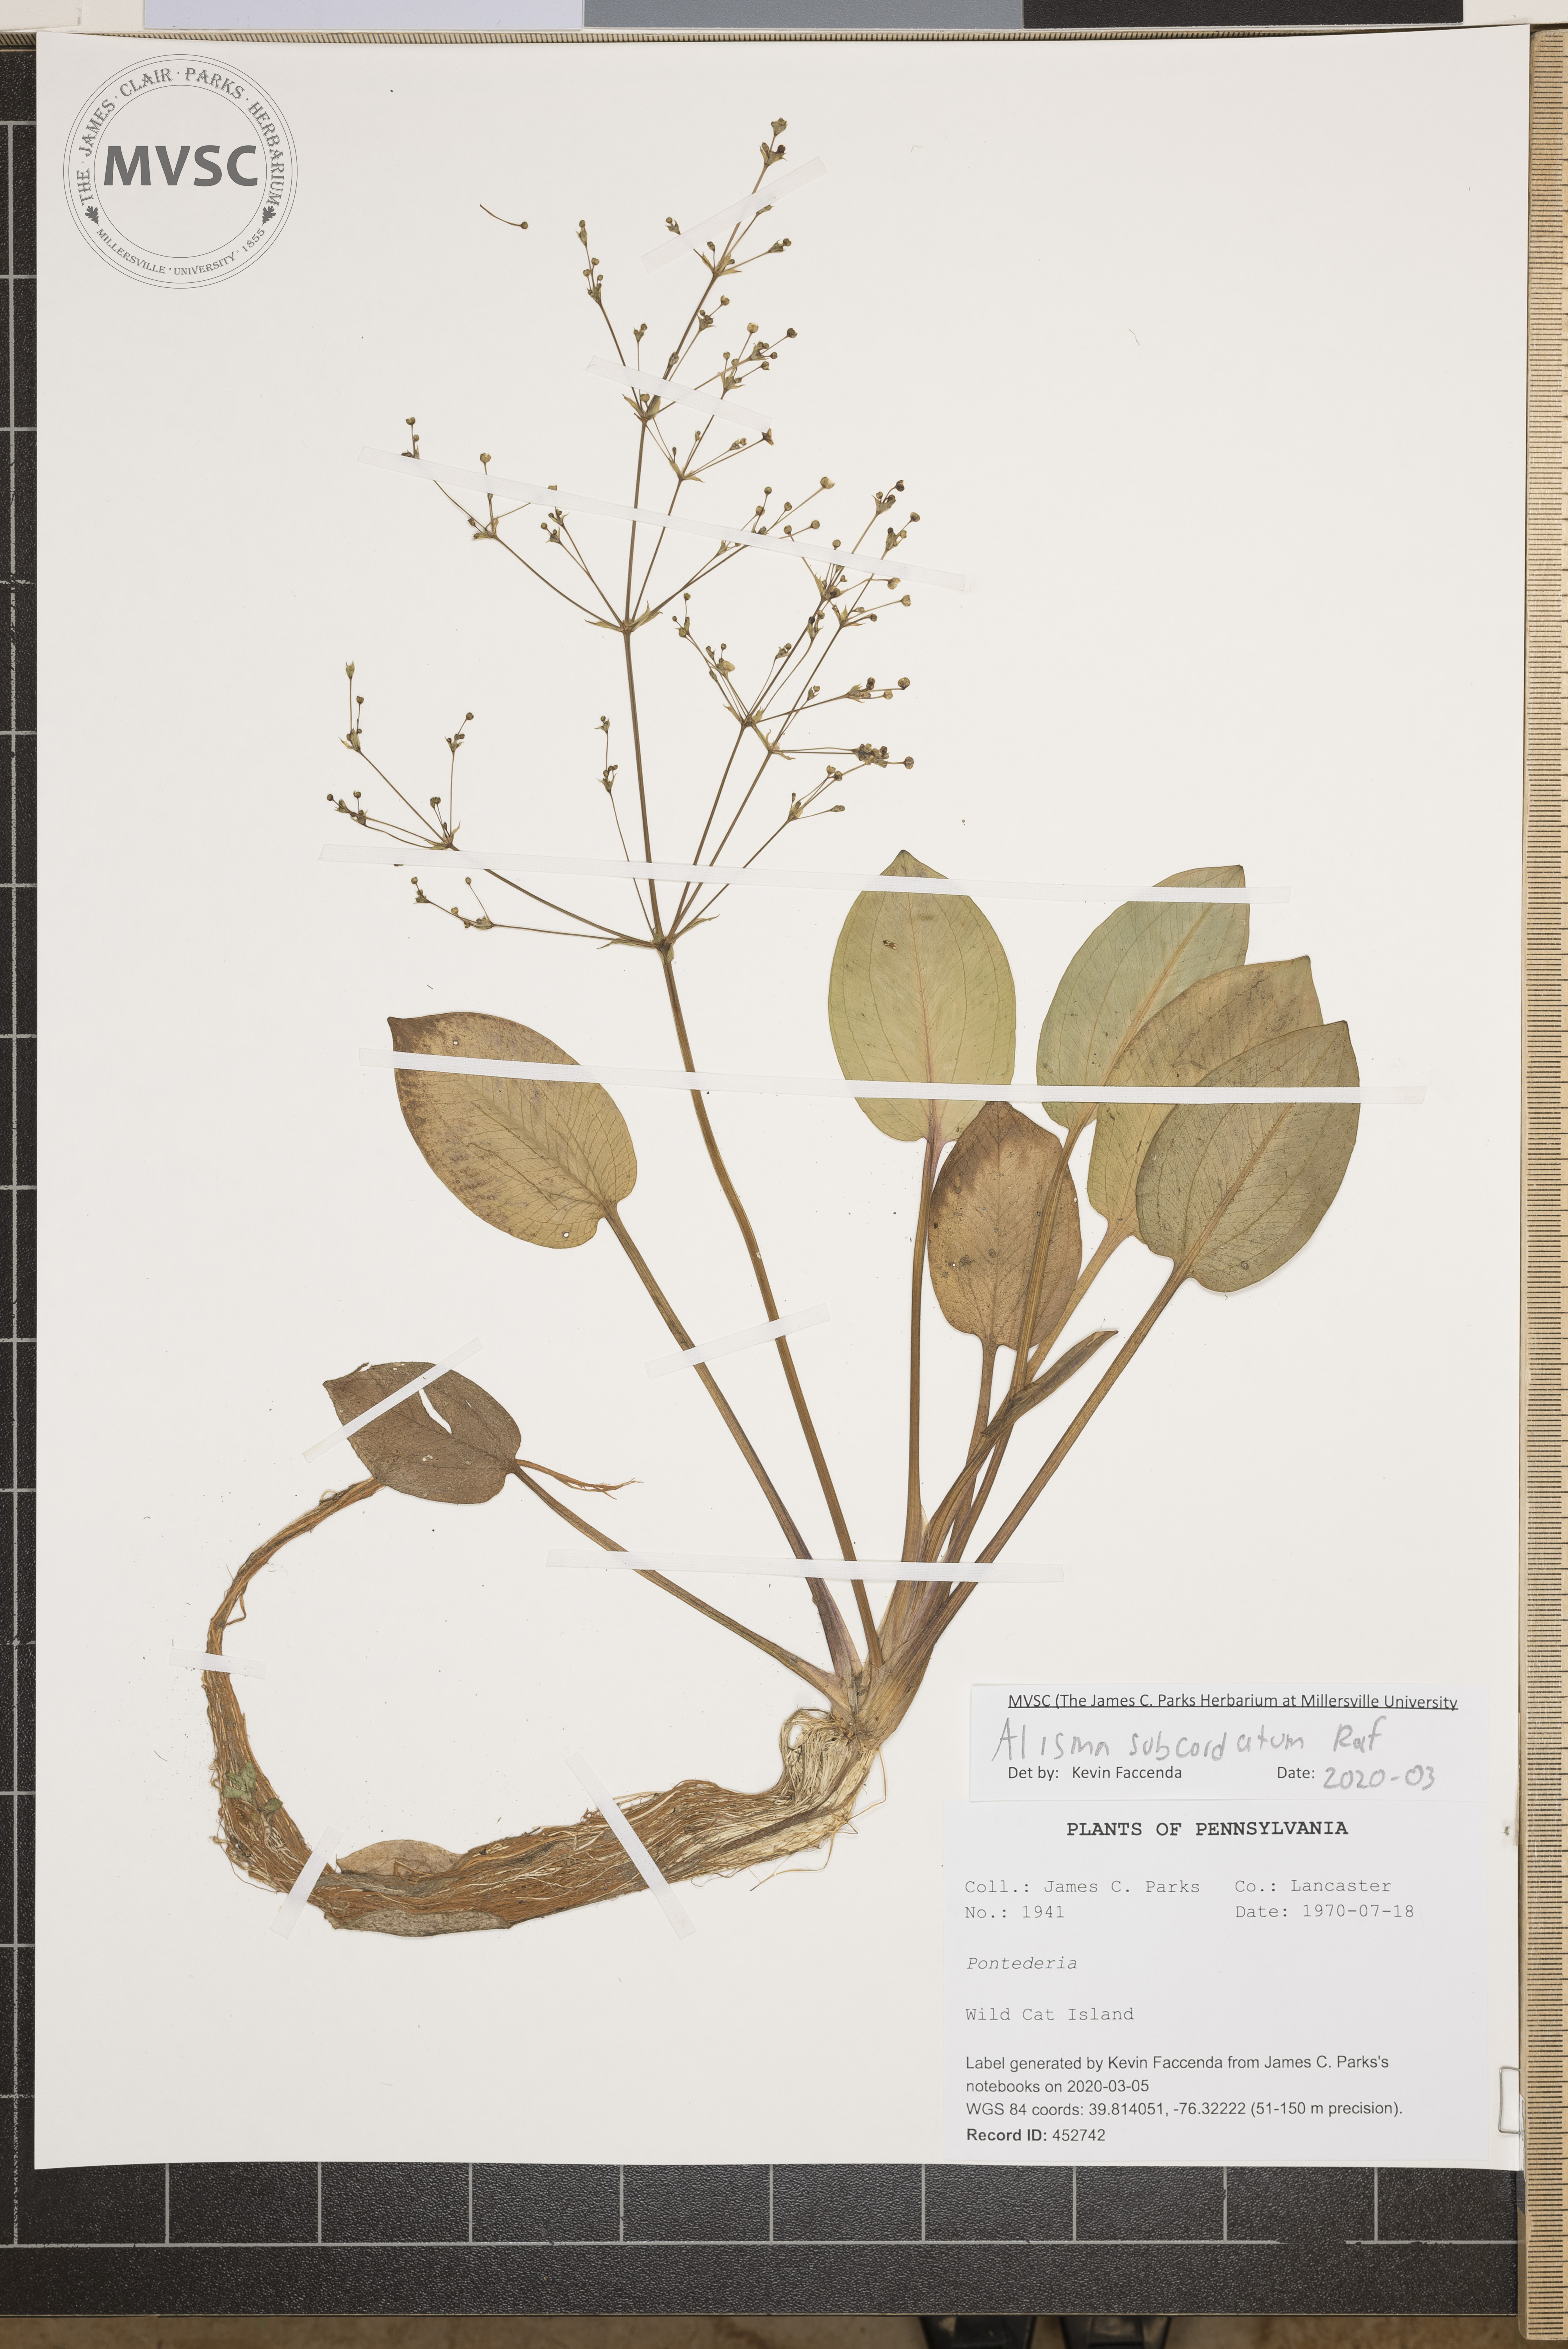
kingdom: Plantae
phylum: Tracheophyta
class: Liliopsida
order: Alismatales
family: Alismataceae
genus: Alisma
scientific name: Alisma subcordatum
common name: Southern water-plantain
